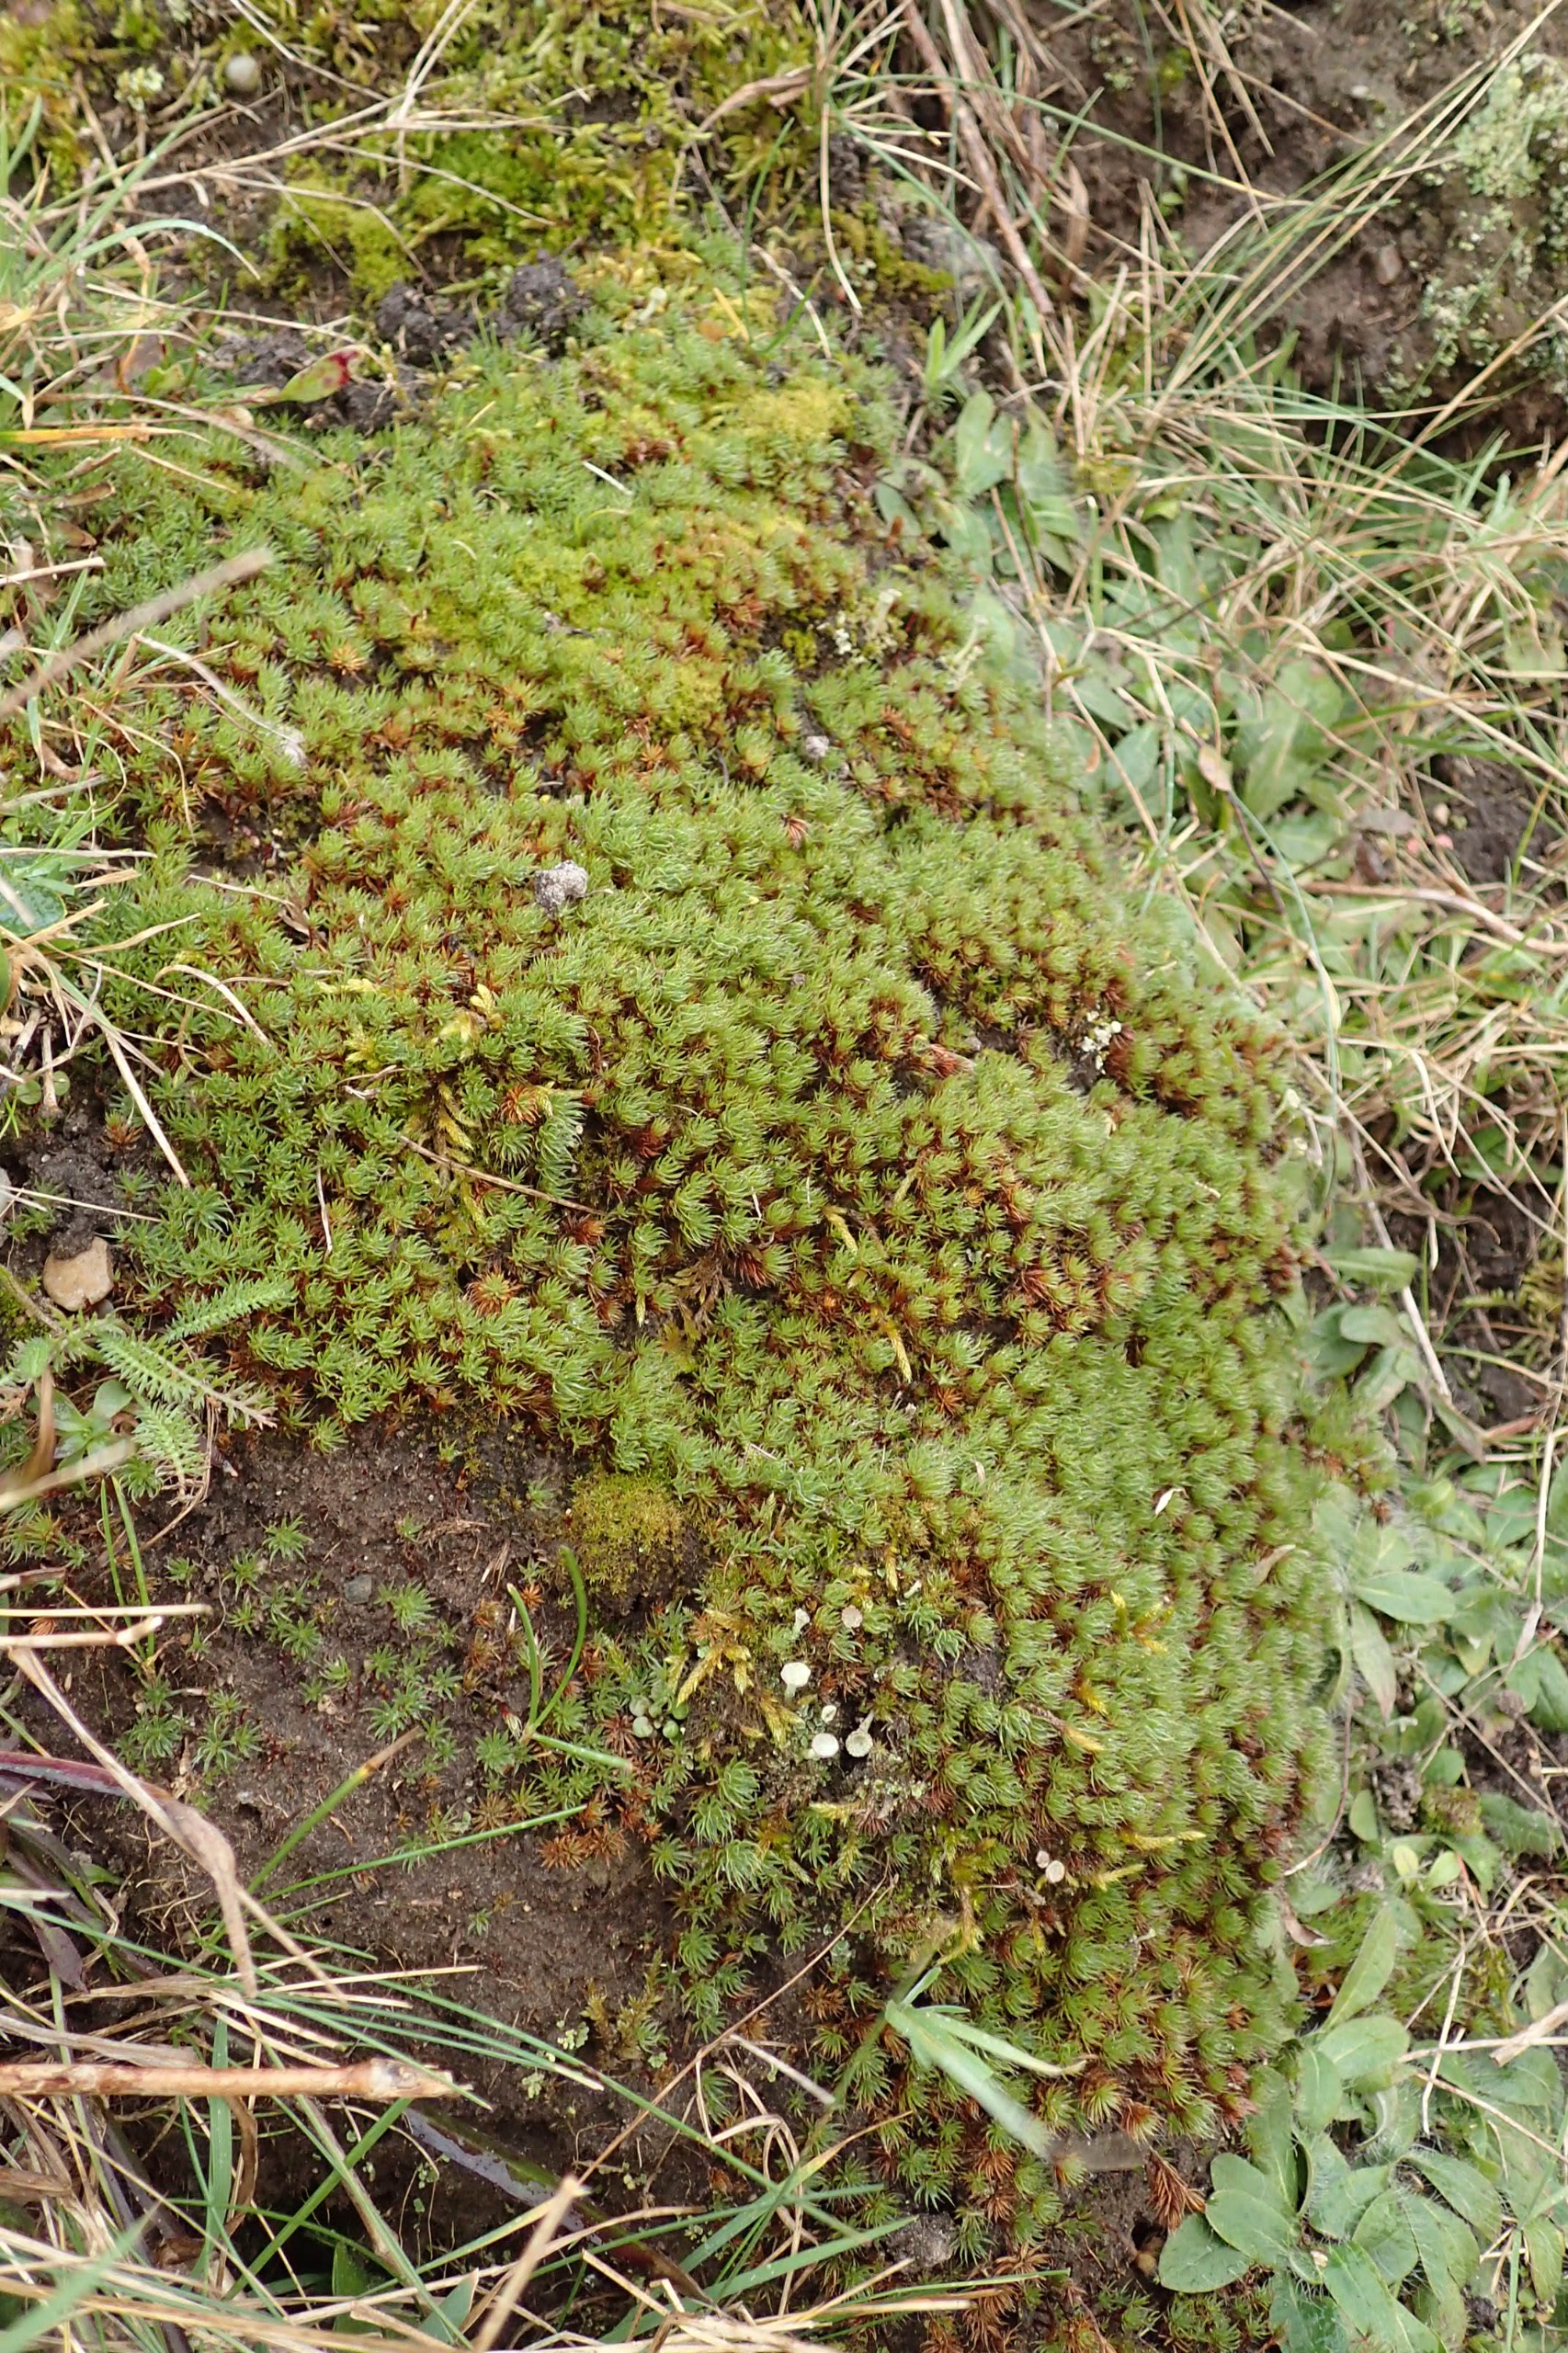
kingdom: Plantae
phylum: Bryophyta
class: Polytrichopsida
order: Polytrichales
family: Polytrichaceae
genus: Polytrichum
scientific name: Polytrichum piliferum
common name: Hårspidset jomfruhår
